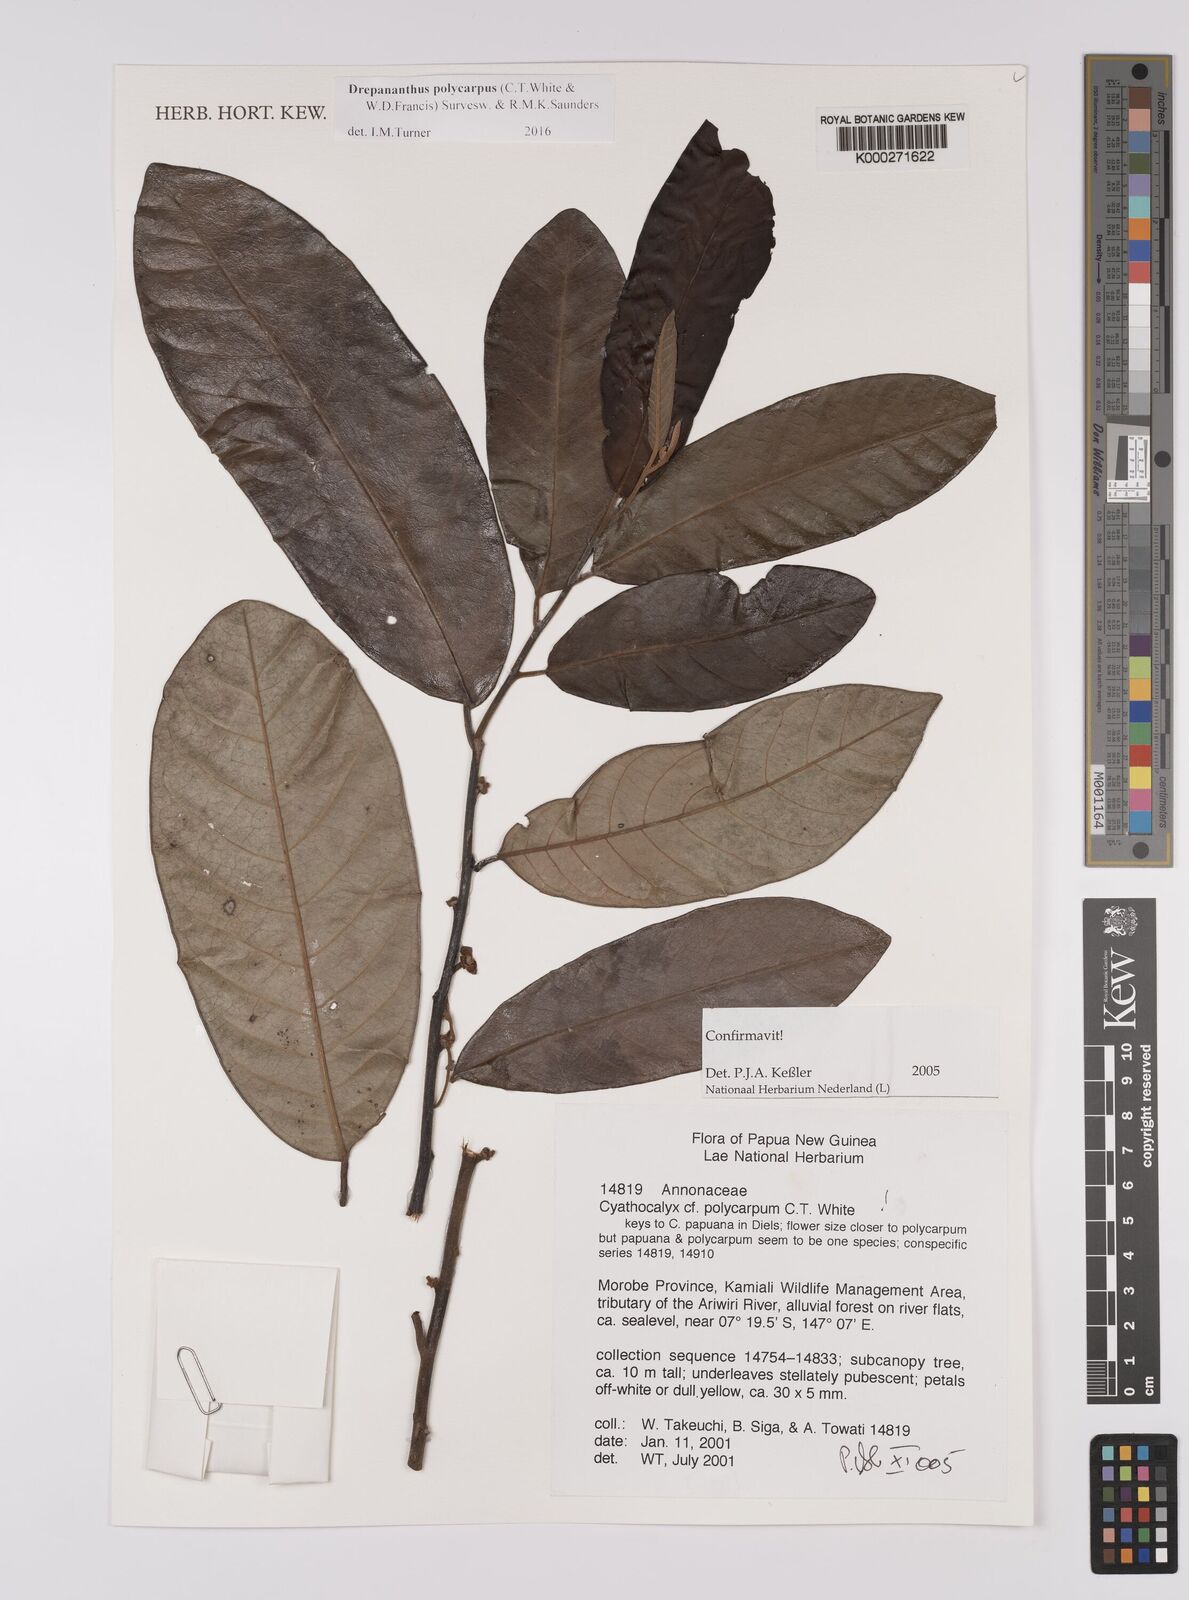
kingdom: Plantae
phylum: Tracheophyta
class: Magnoliopsida
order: Magnoliales
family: Annonaceae
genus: Drepananthus
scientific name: Drepananthus polycarpus
